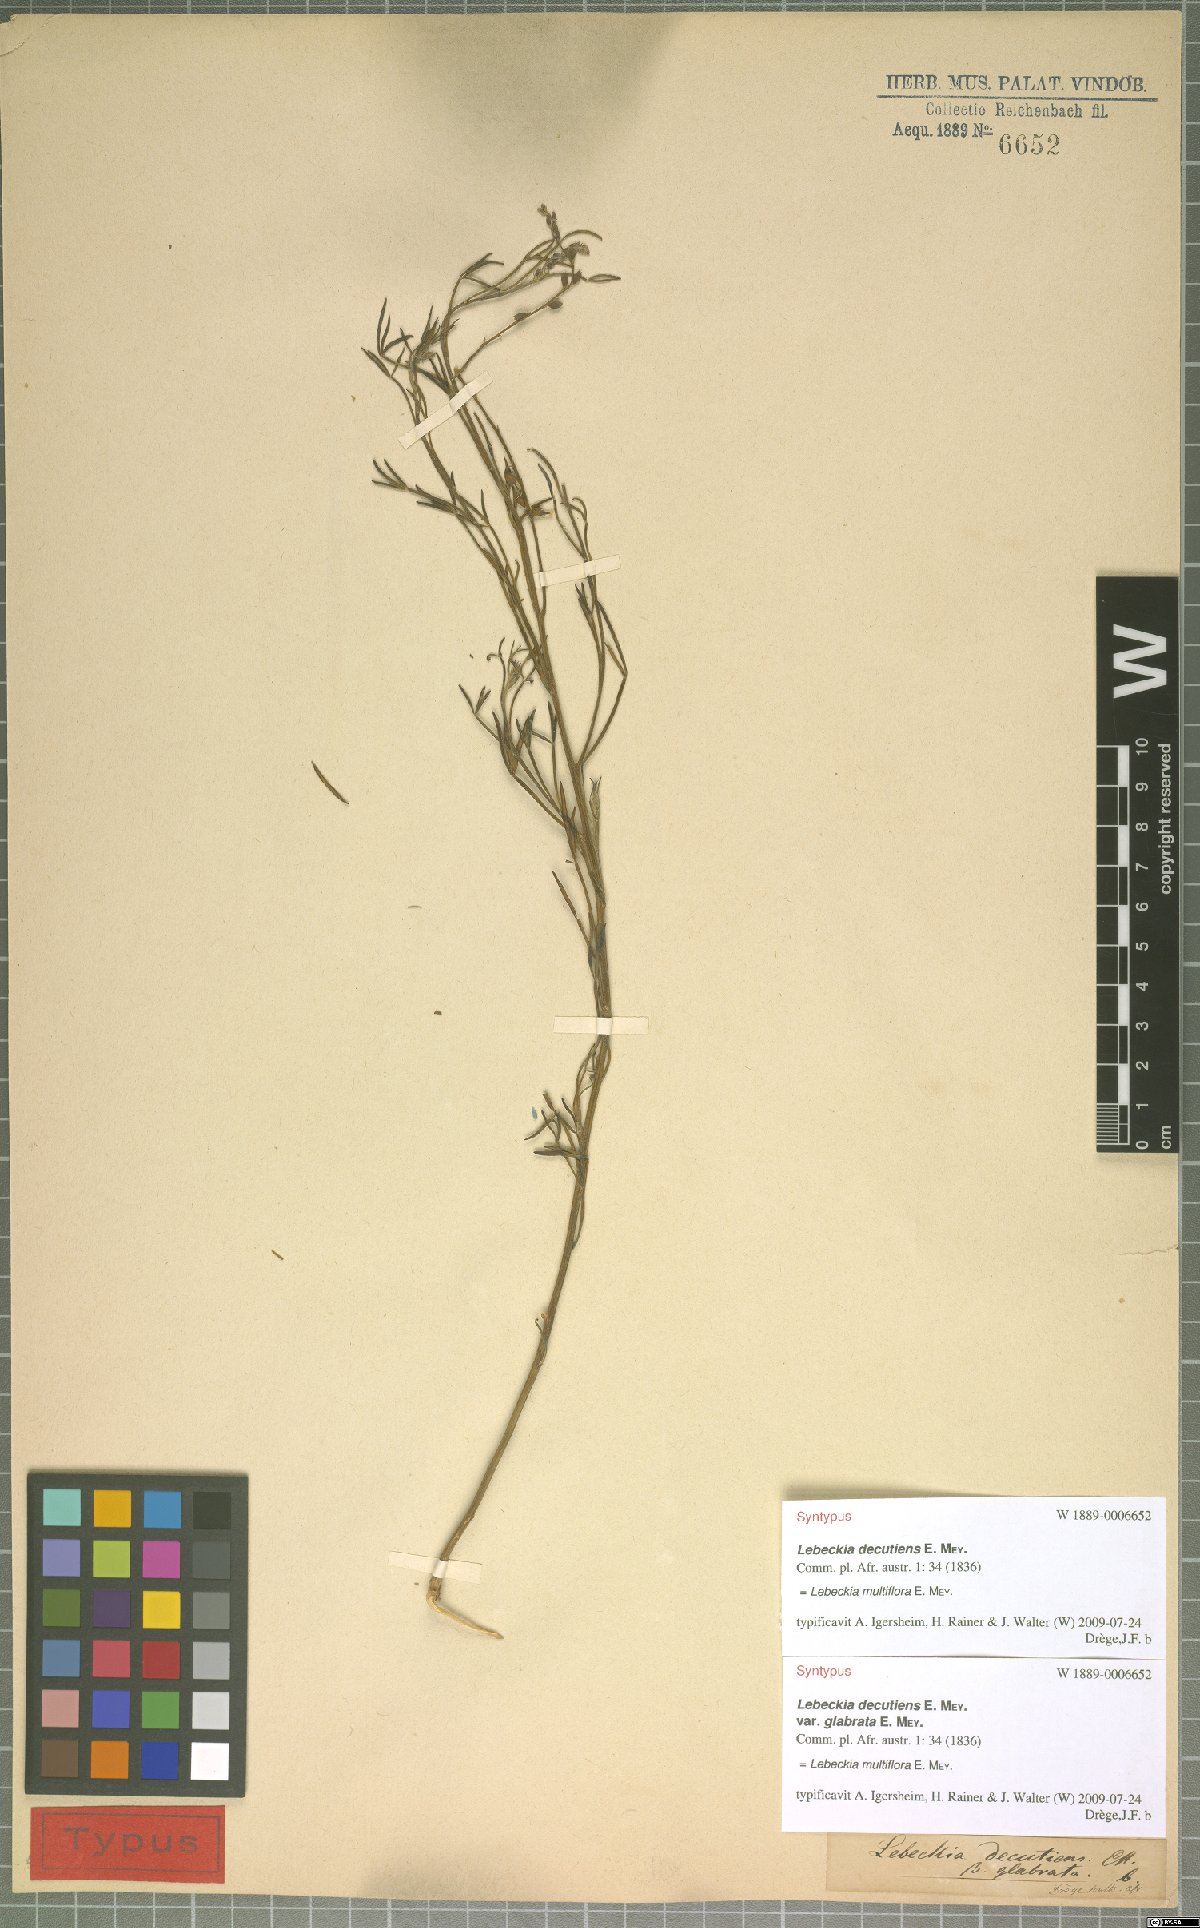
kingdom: Plantae
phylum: Tracheophyta
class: Magnoliopsida
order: Fabales
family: Fabaceae
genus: Calobota
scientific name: Calobota angustifolia
